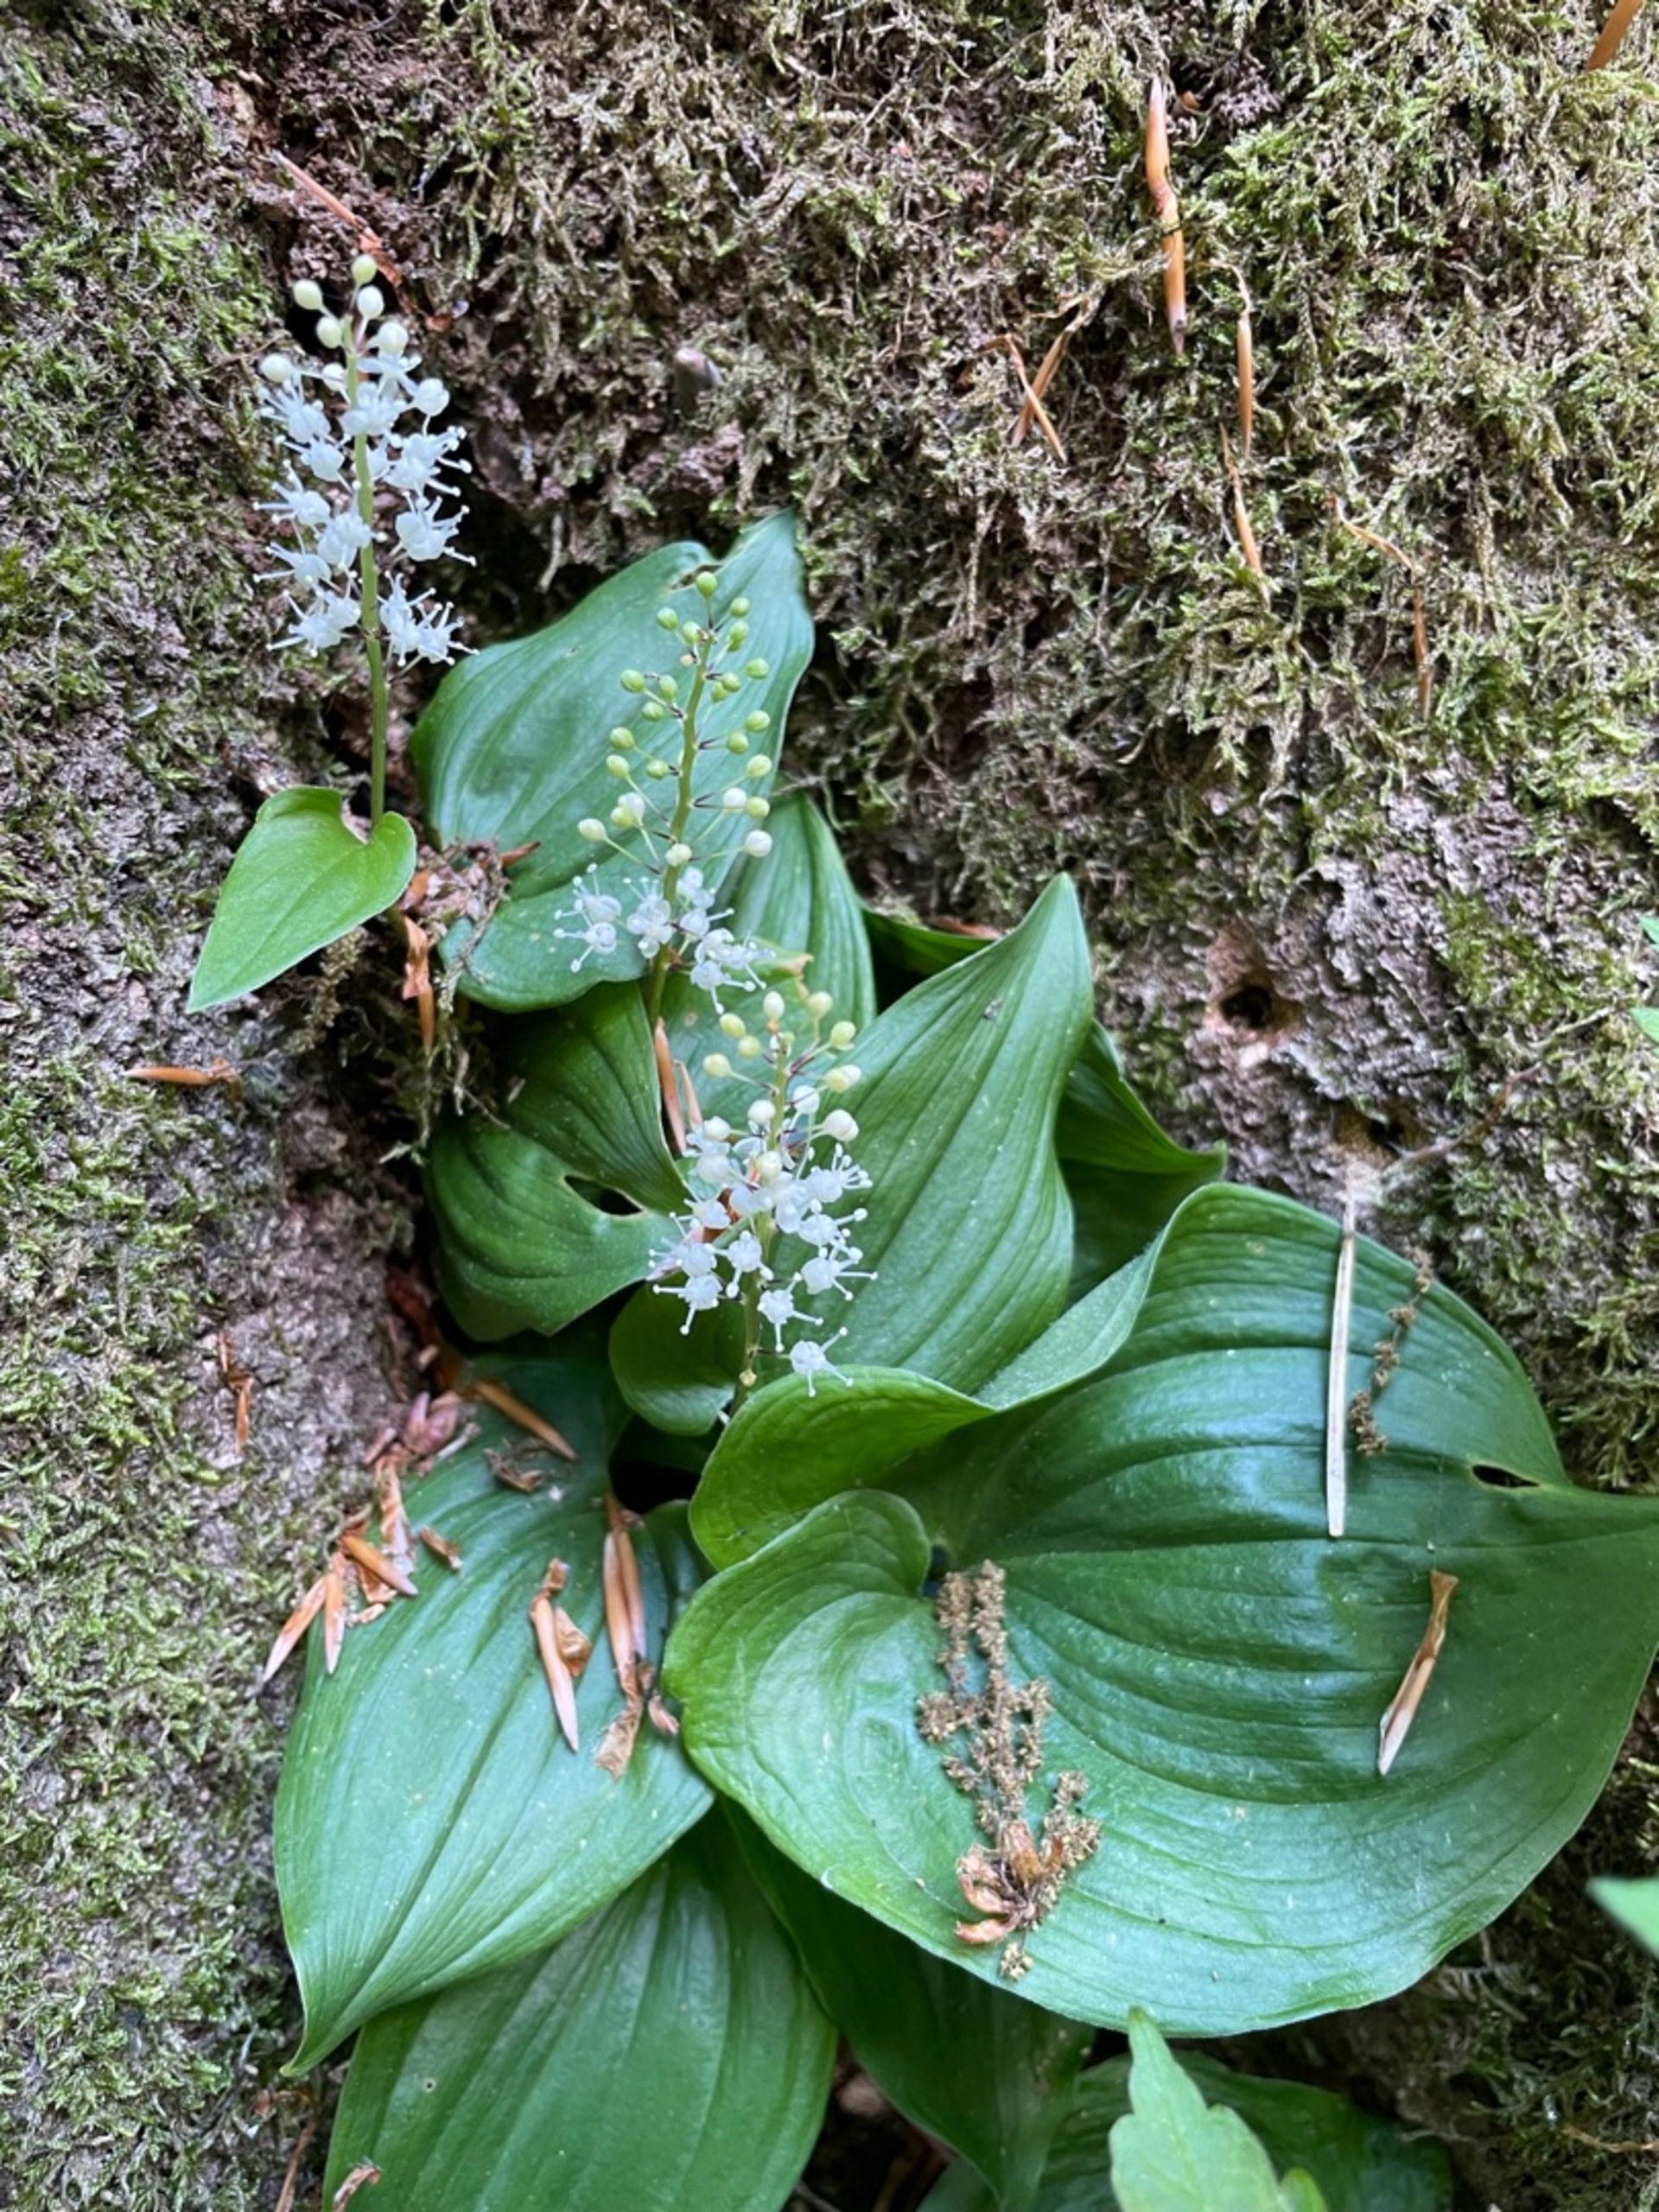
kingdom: Plantae
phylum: Tracheophyta
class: Liliopsida
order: Asparagales
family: Asparagaceae
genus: Maianthemum
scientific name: Maianthemum bifolium
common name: Majblomst
